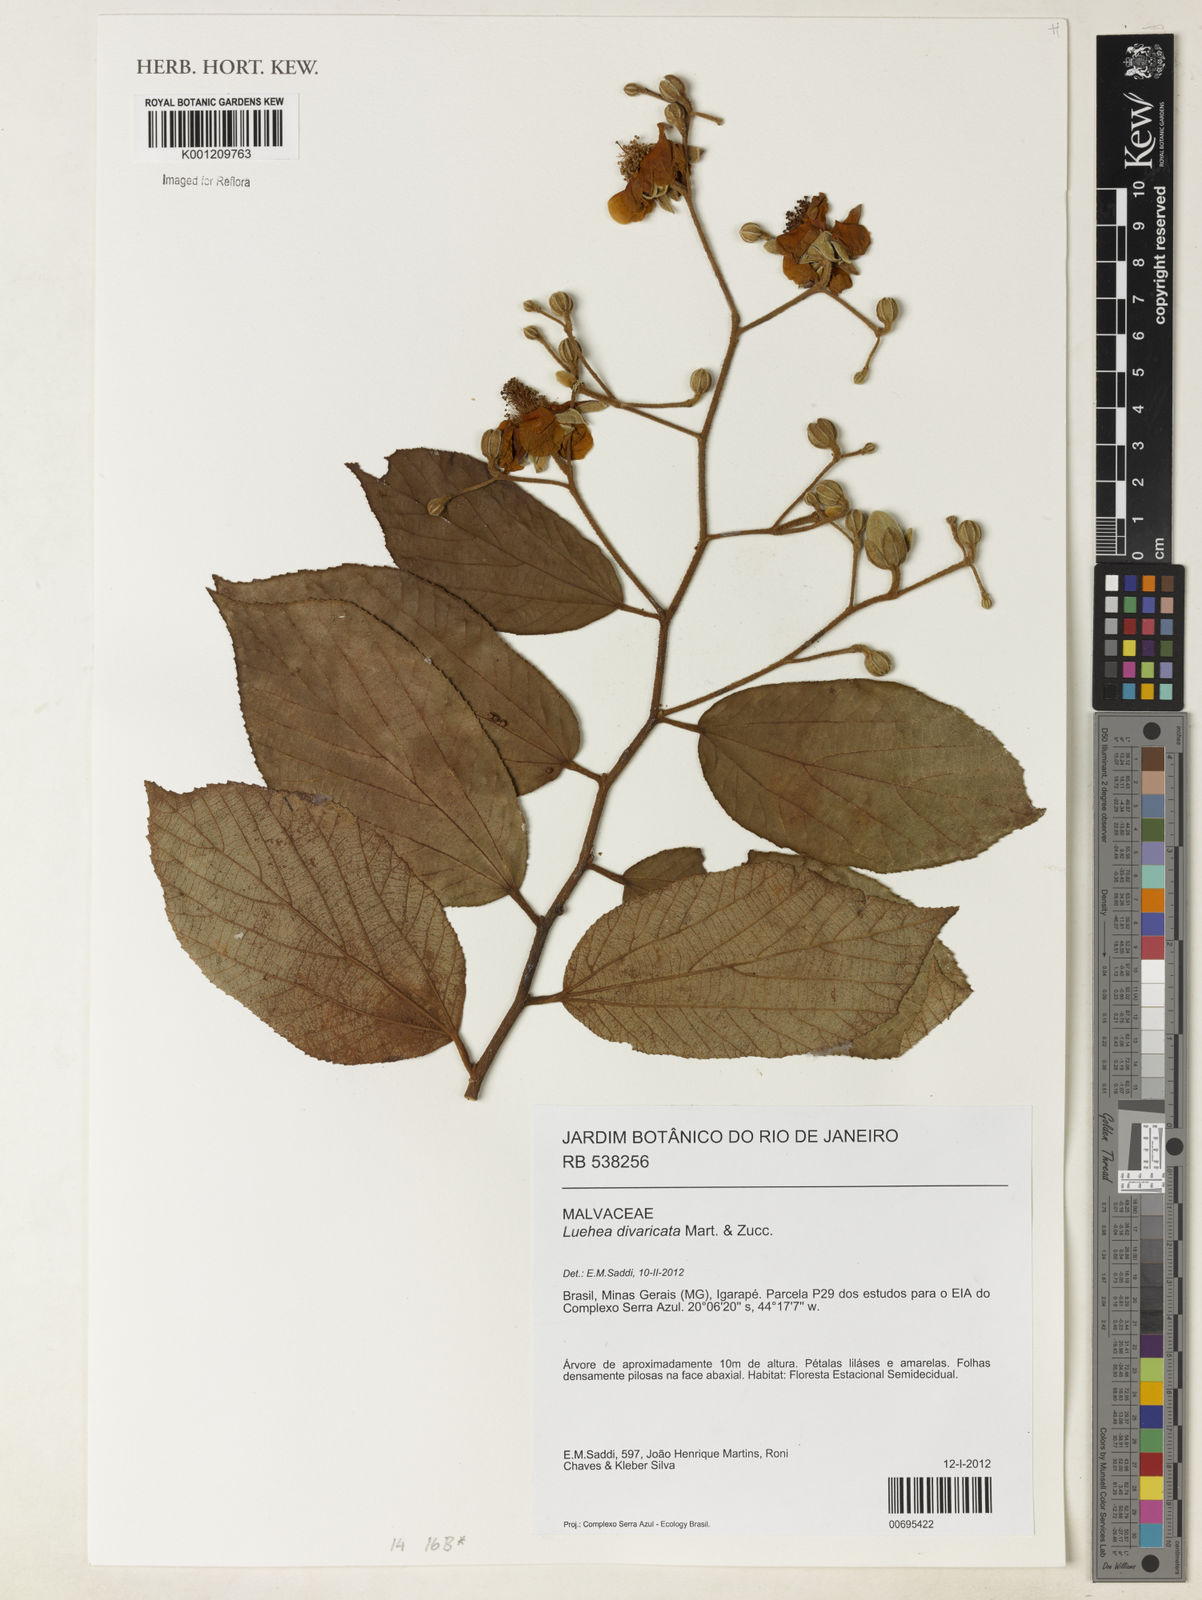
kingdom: Plantae
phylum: Tracheophyta
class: Magnoliopsida
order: Malvales
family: Malvaceae
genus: Luehea
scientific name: Luehea divaricata
